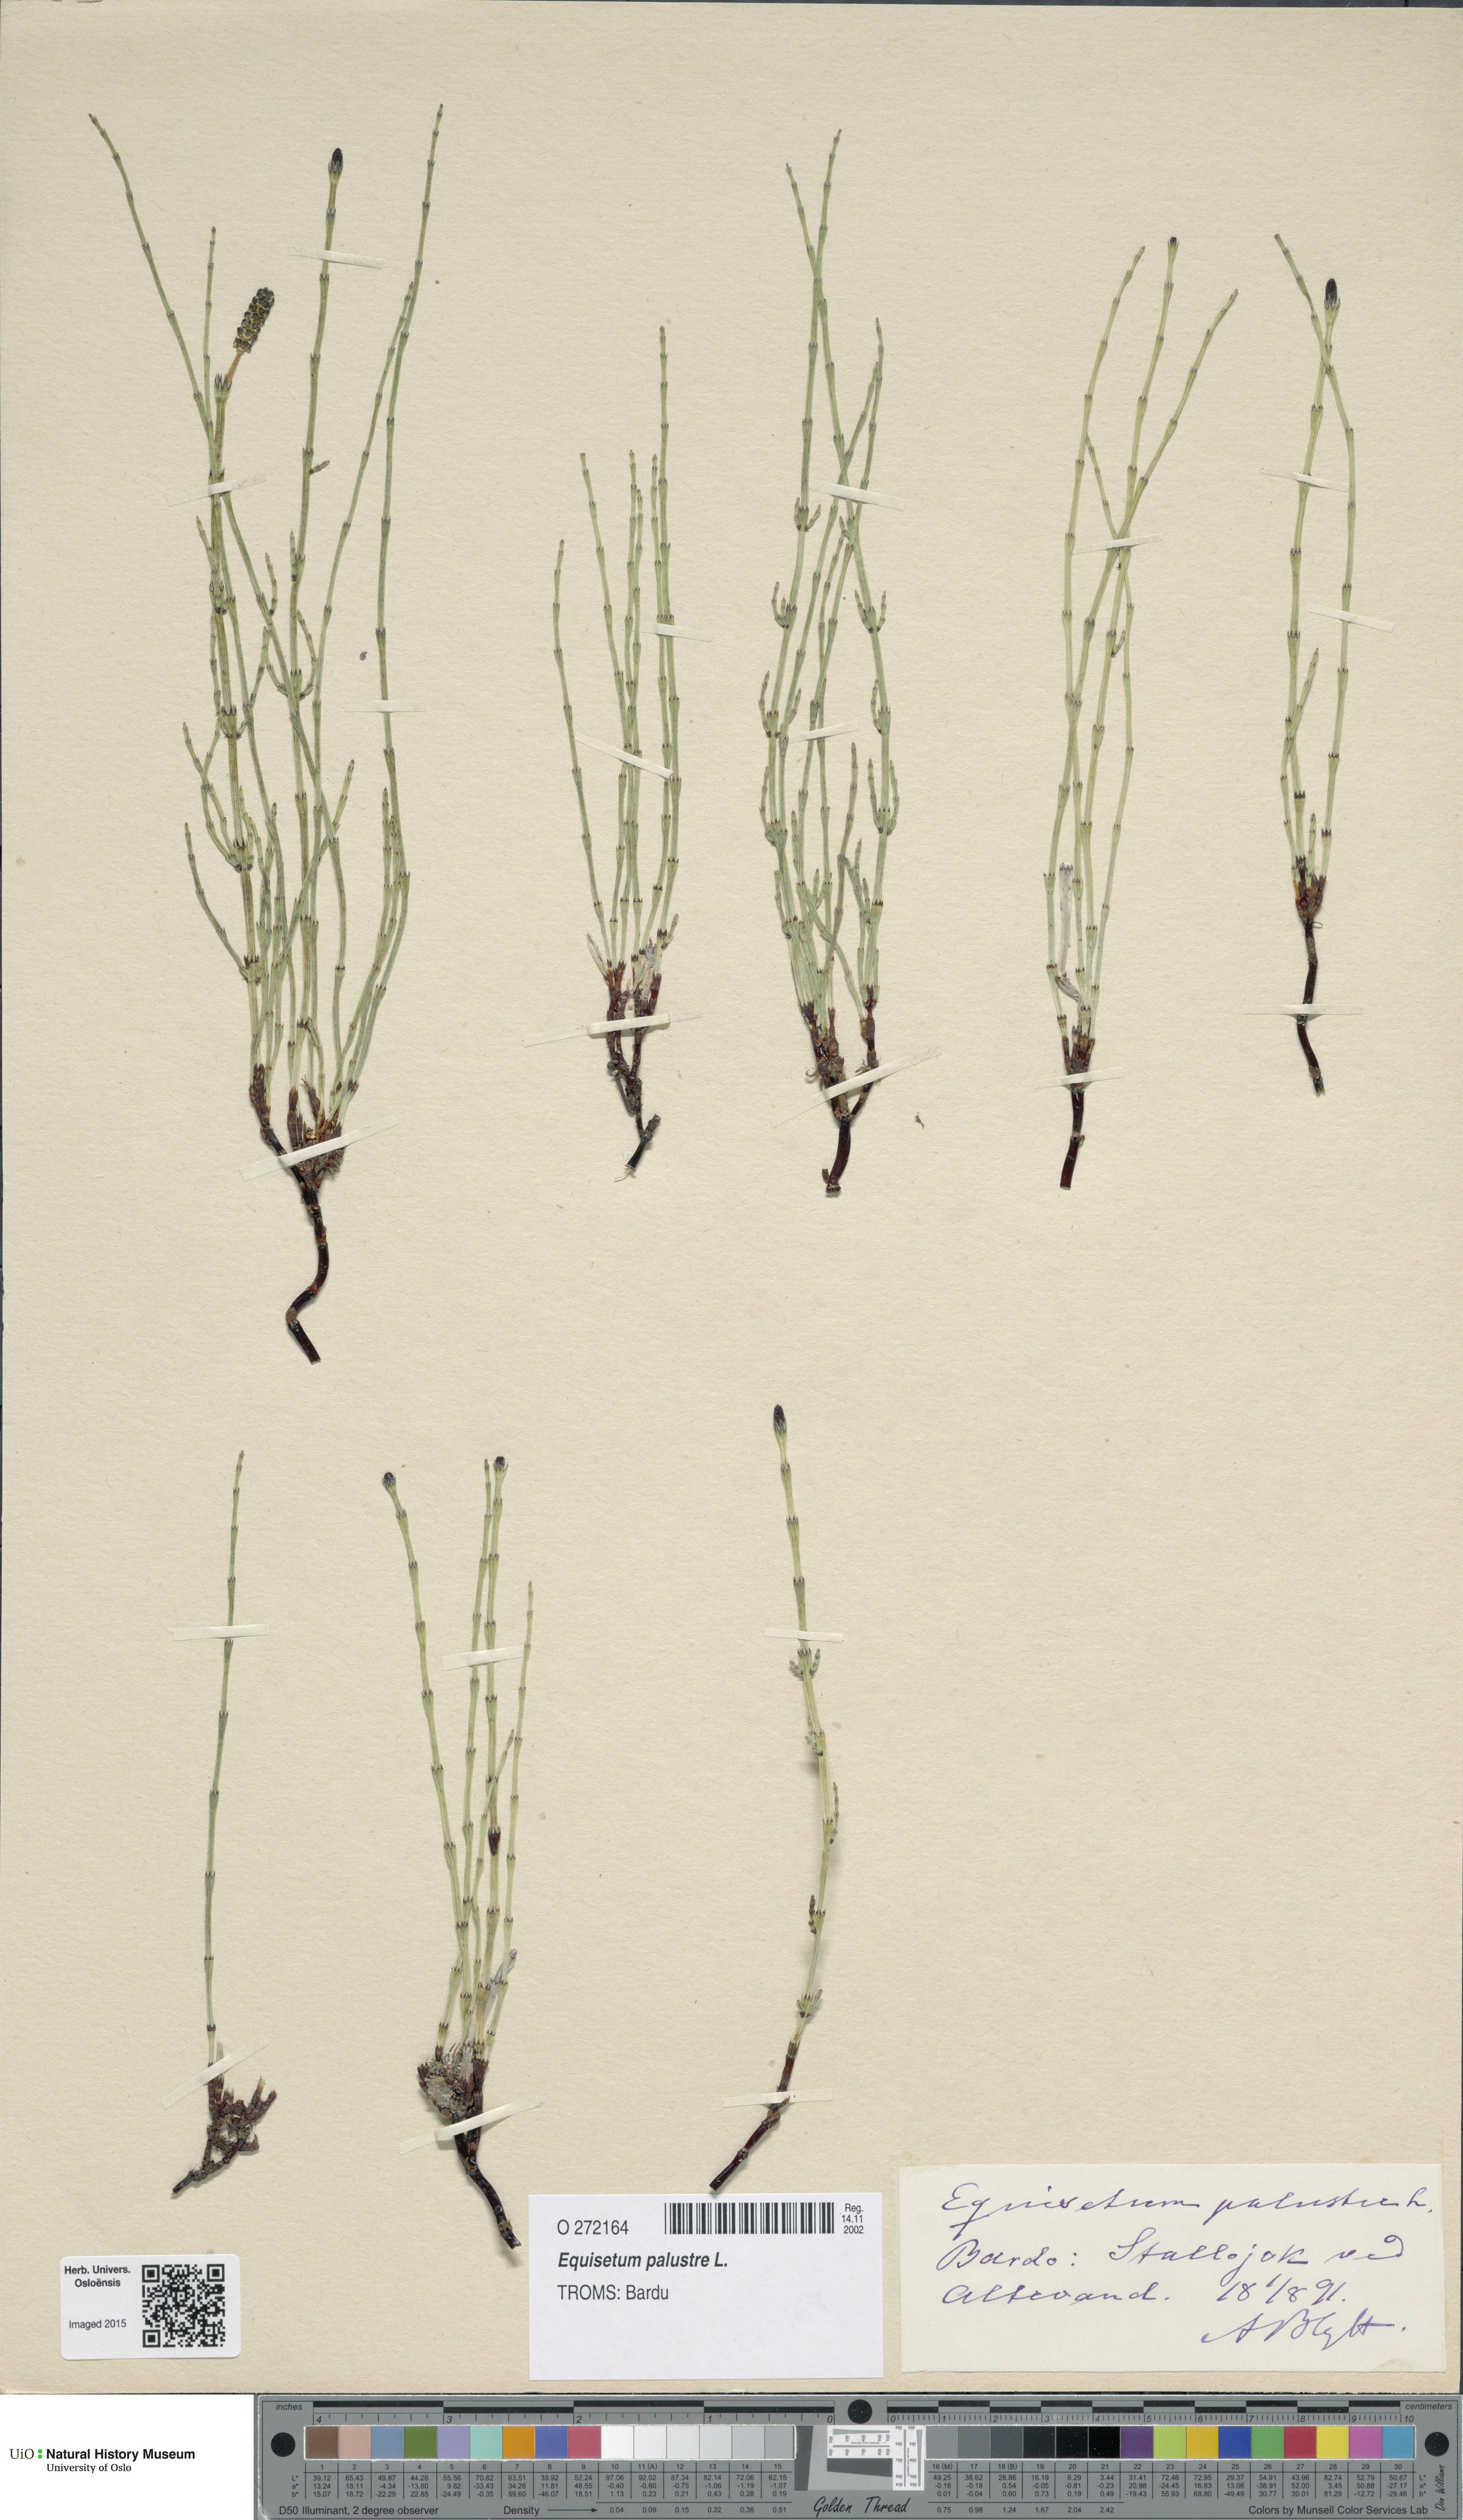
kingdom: Plantae
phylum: Tracheophyta
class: Polypodiopsida
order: Equisetales
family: Equisetaceae
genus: Equisetum
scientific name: Equisetum palustre
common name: Marsh horsetail
